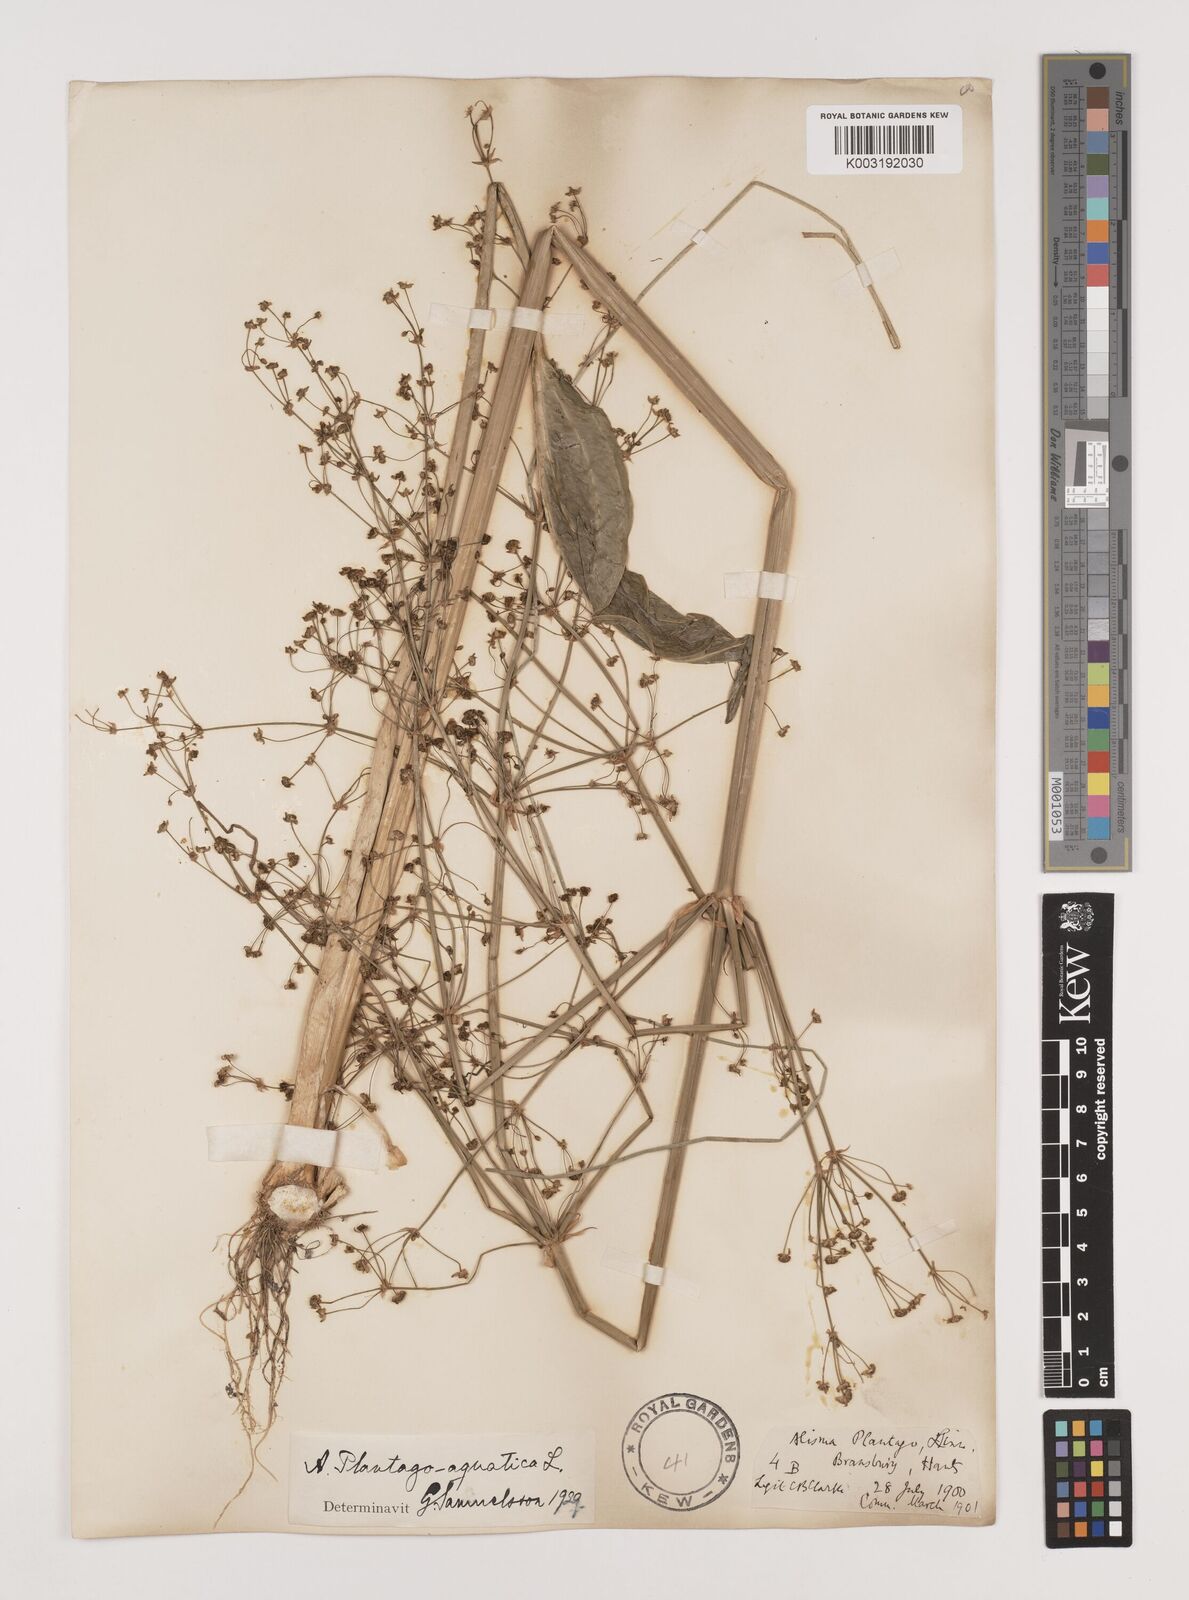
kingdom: Plantae
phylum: Tracheophyta
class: Liliopsida
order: Alismatales
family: Alismataceae
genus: Alisma
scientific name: Alisma plantago-aquatica
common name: Water-plantain
